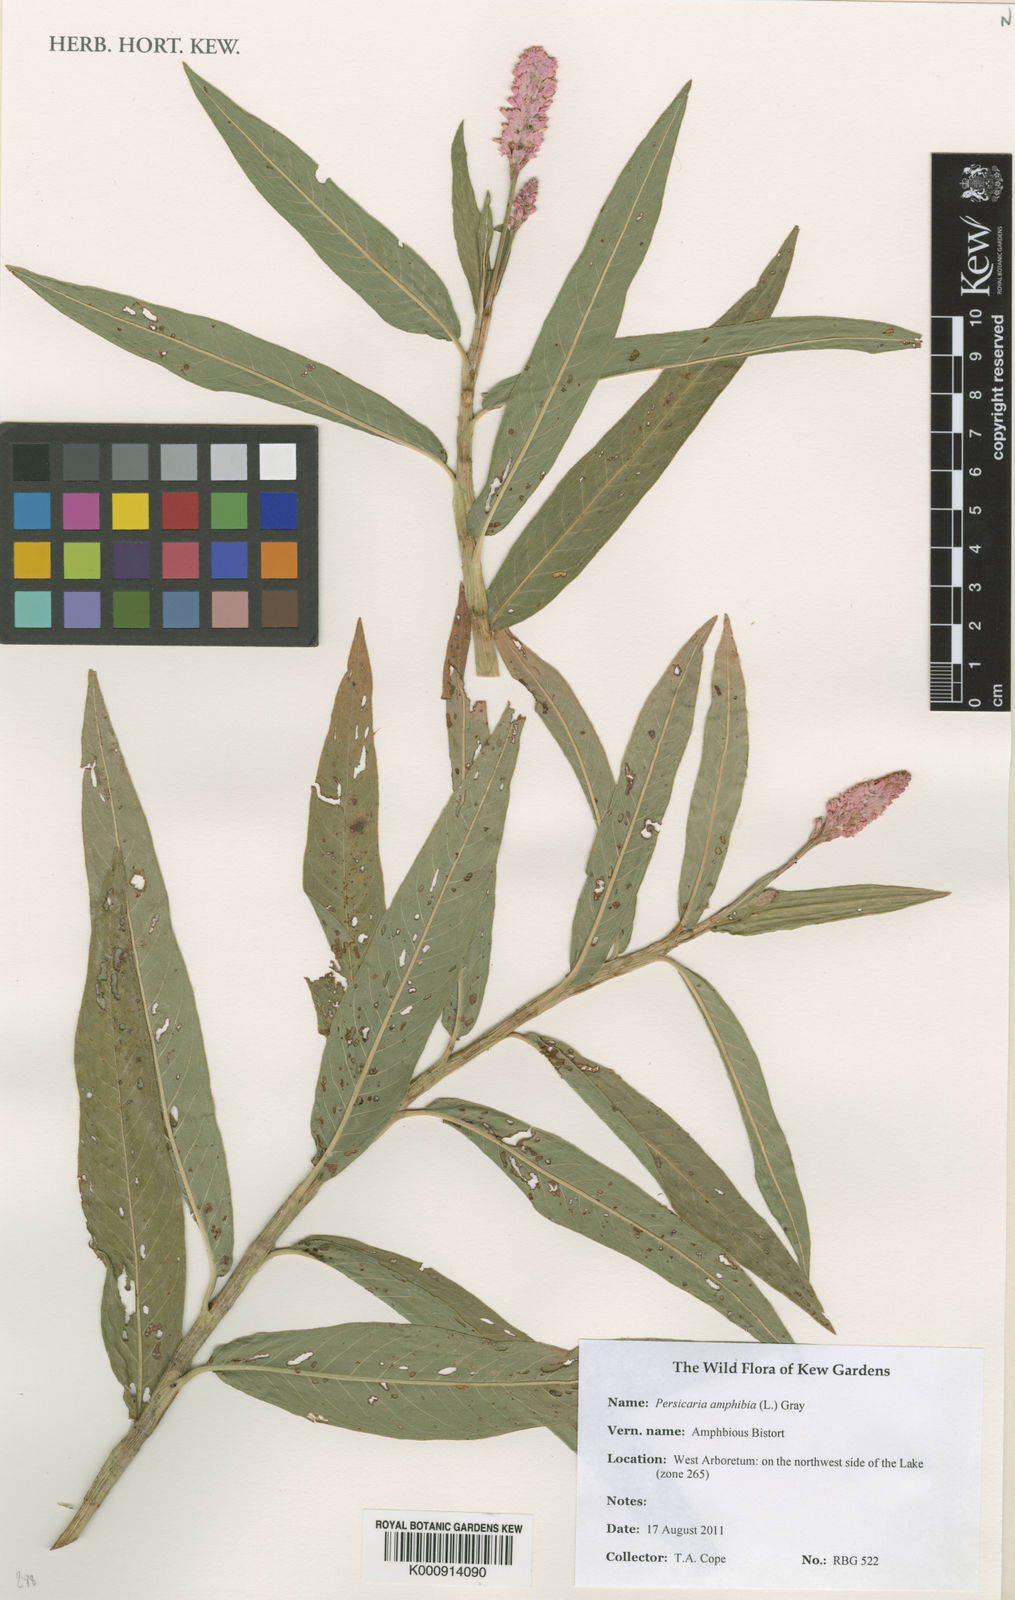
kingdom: Plantae
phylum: Tracheophyta
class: Magnoliopsida
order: Caryophyllales
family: Polygonaceae
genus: Persicaria
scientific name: Persicaria
